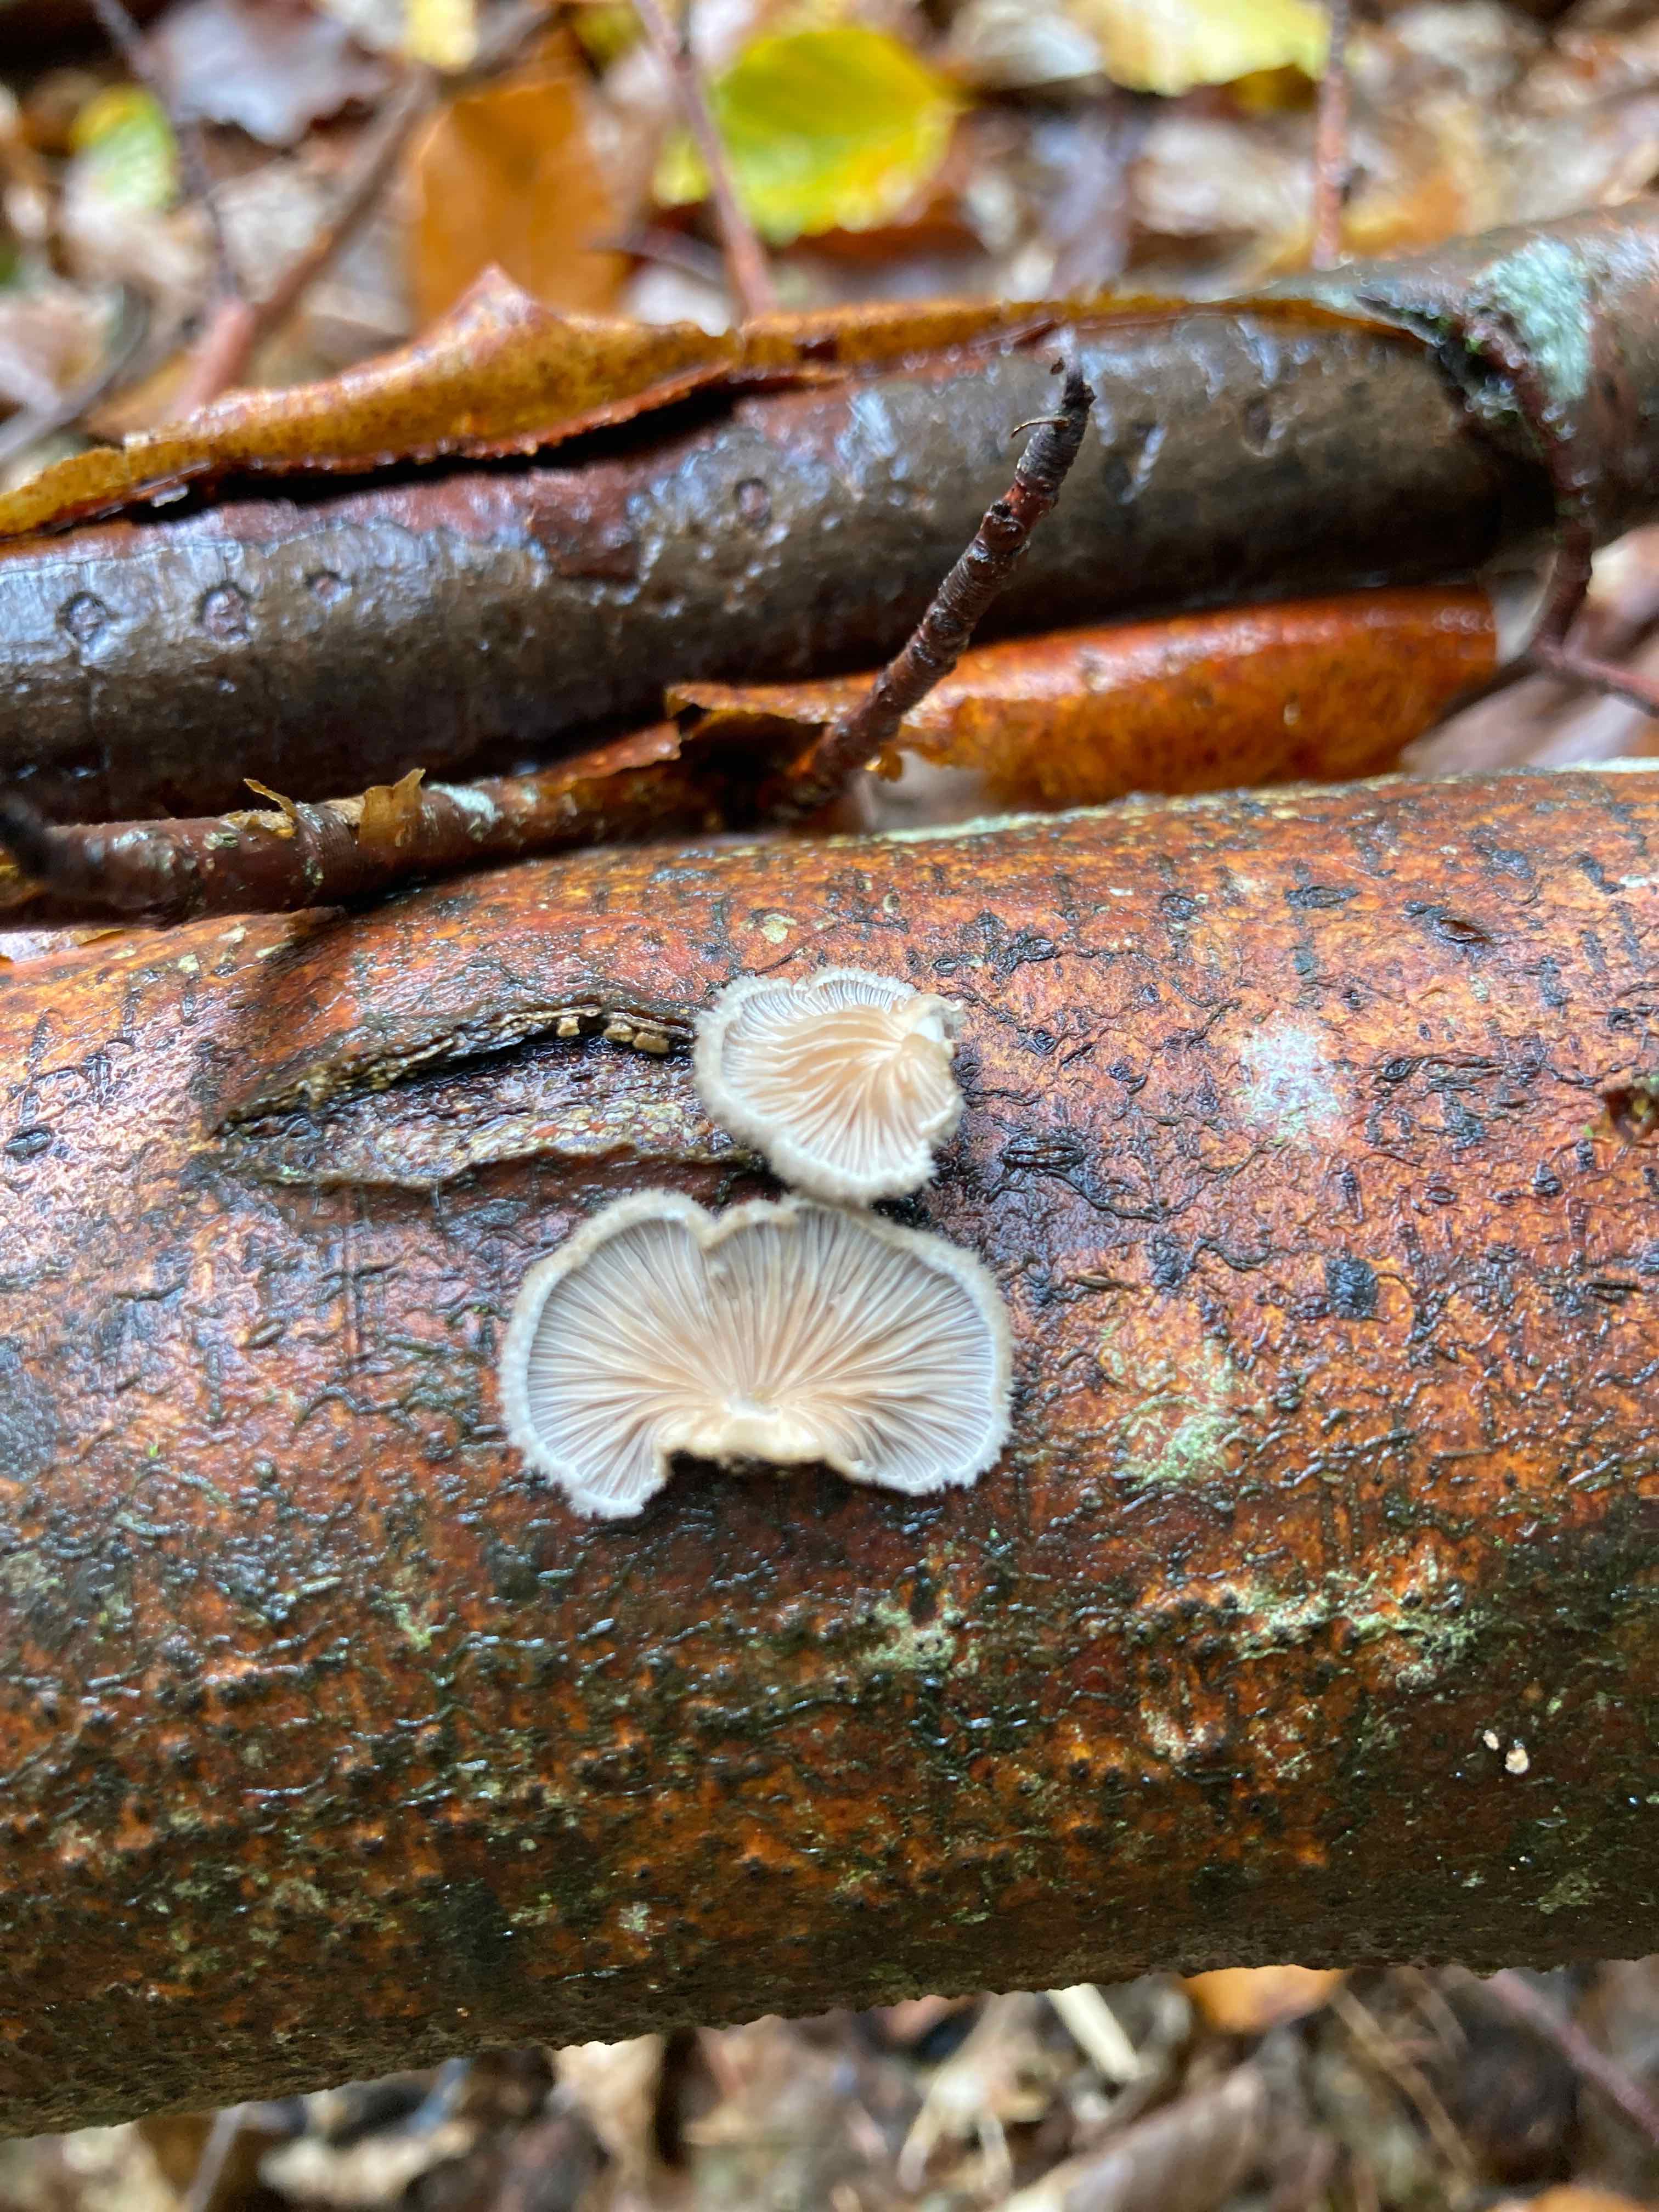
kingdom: Fungi
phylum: Basidiomycota
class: Agaricomycetes
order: Agaricales
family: Schizophyllaceae
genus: Schizophyllum
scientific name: Schizophyllum commune
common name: kløvblad
